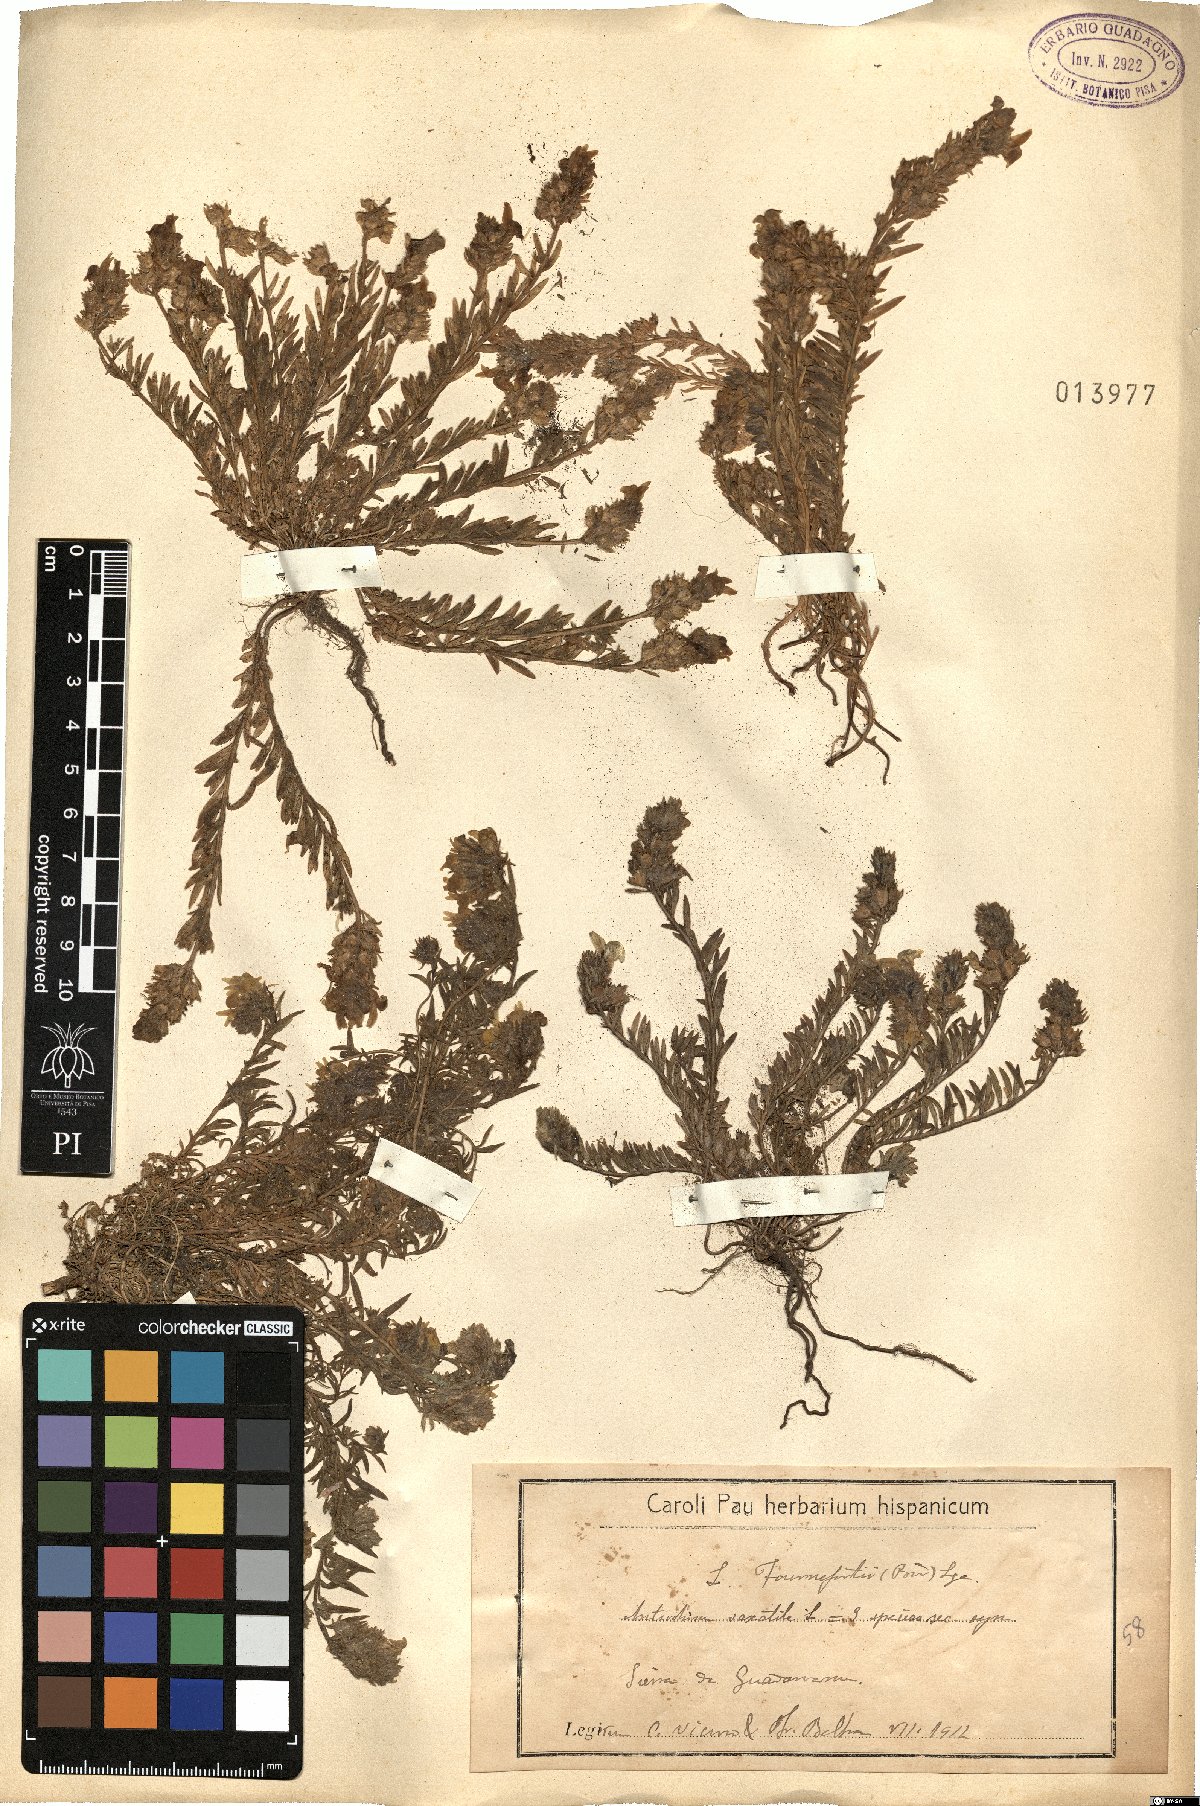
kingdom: Plantae
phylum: Tracheophyta
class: Magnoliopsida
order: Lamiales
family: Plantaginaceae
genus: Linaria
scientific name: Linaria saxatilis
